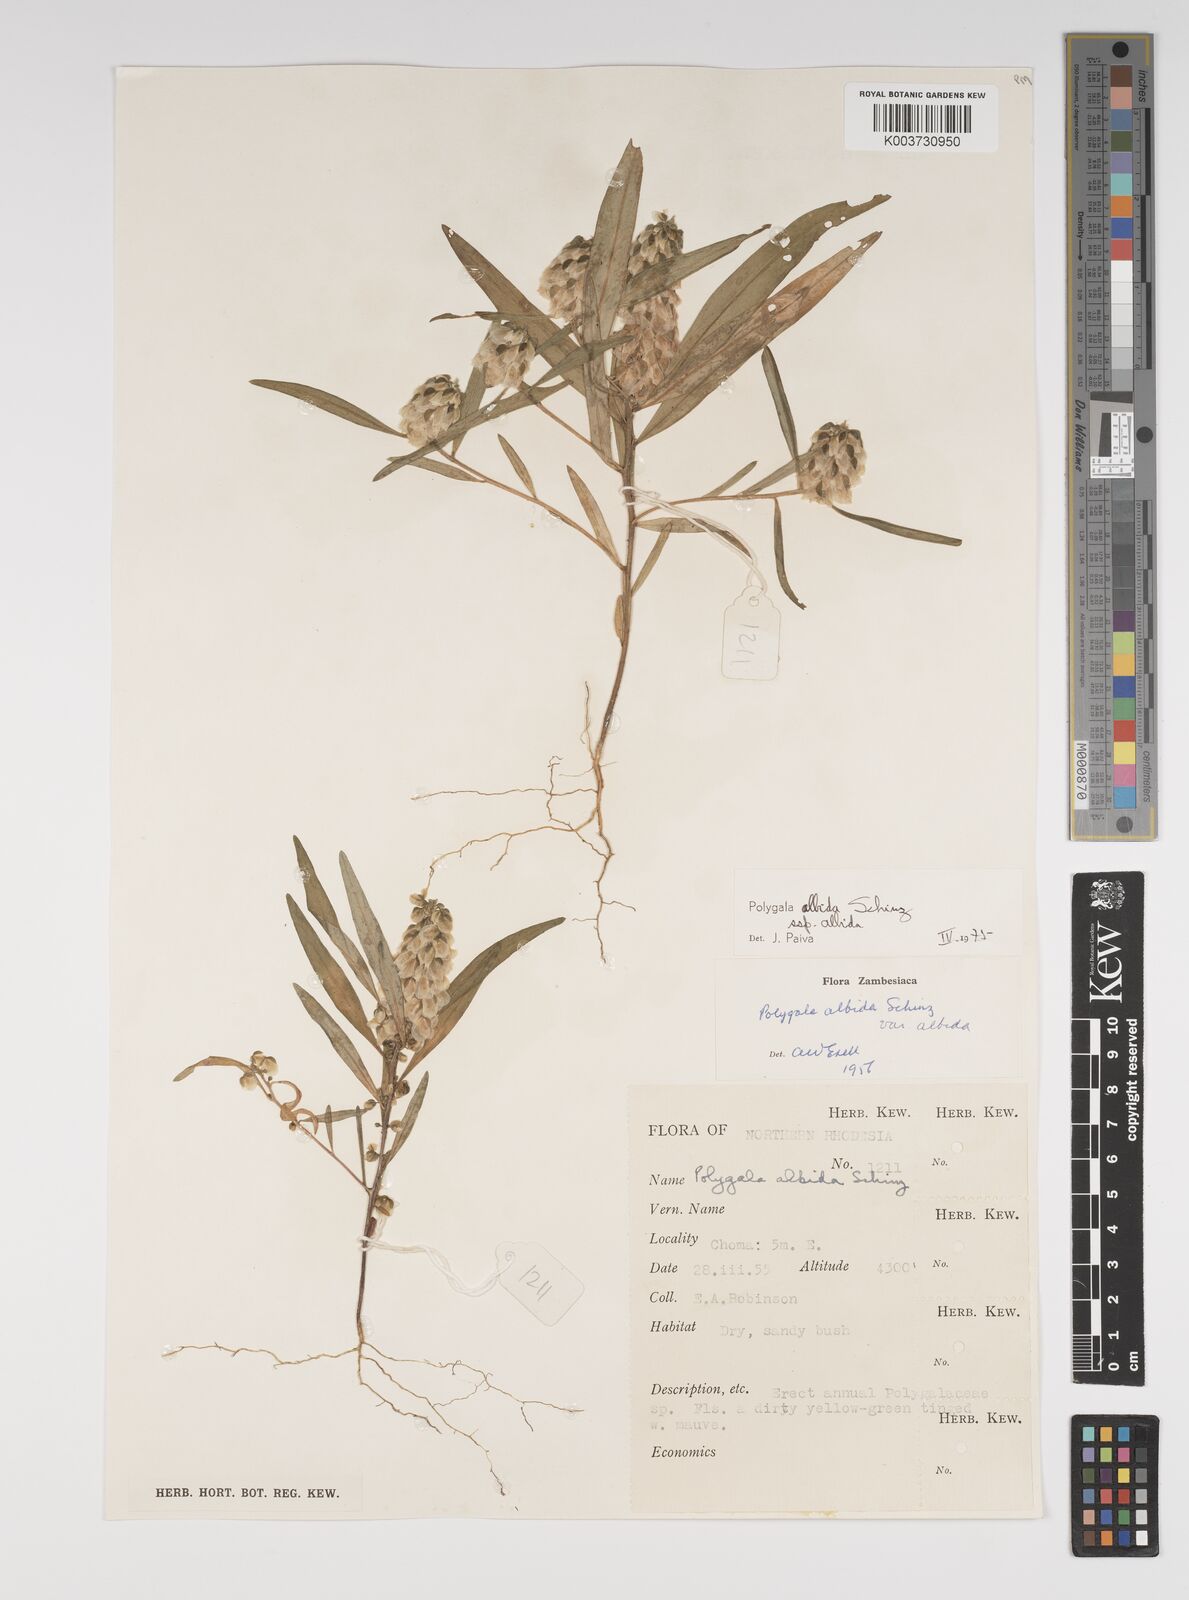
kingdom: Plantae
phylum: Tracheophyta
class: Magnoliopsida
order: Fabales
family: Polygalaceae
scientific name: Polygalaceae
